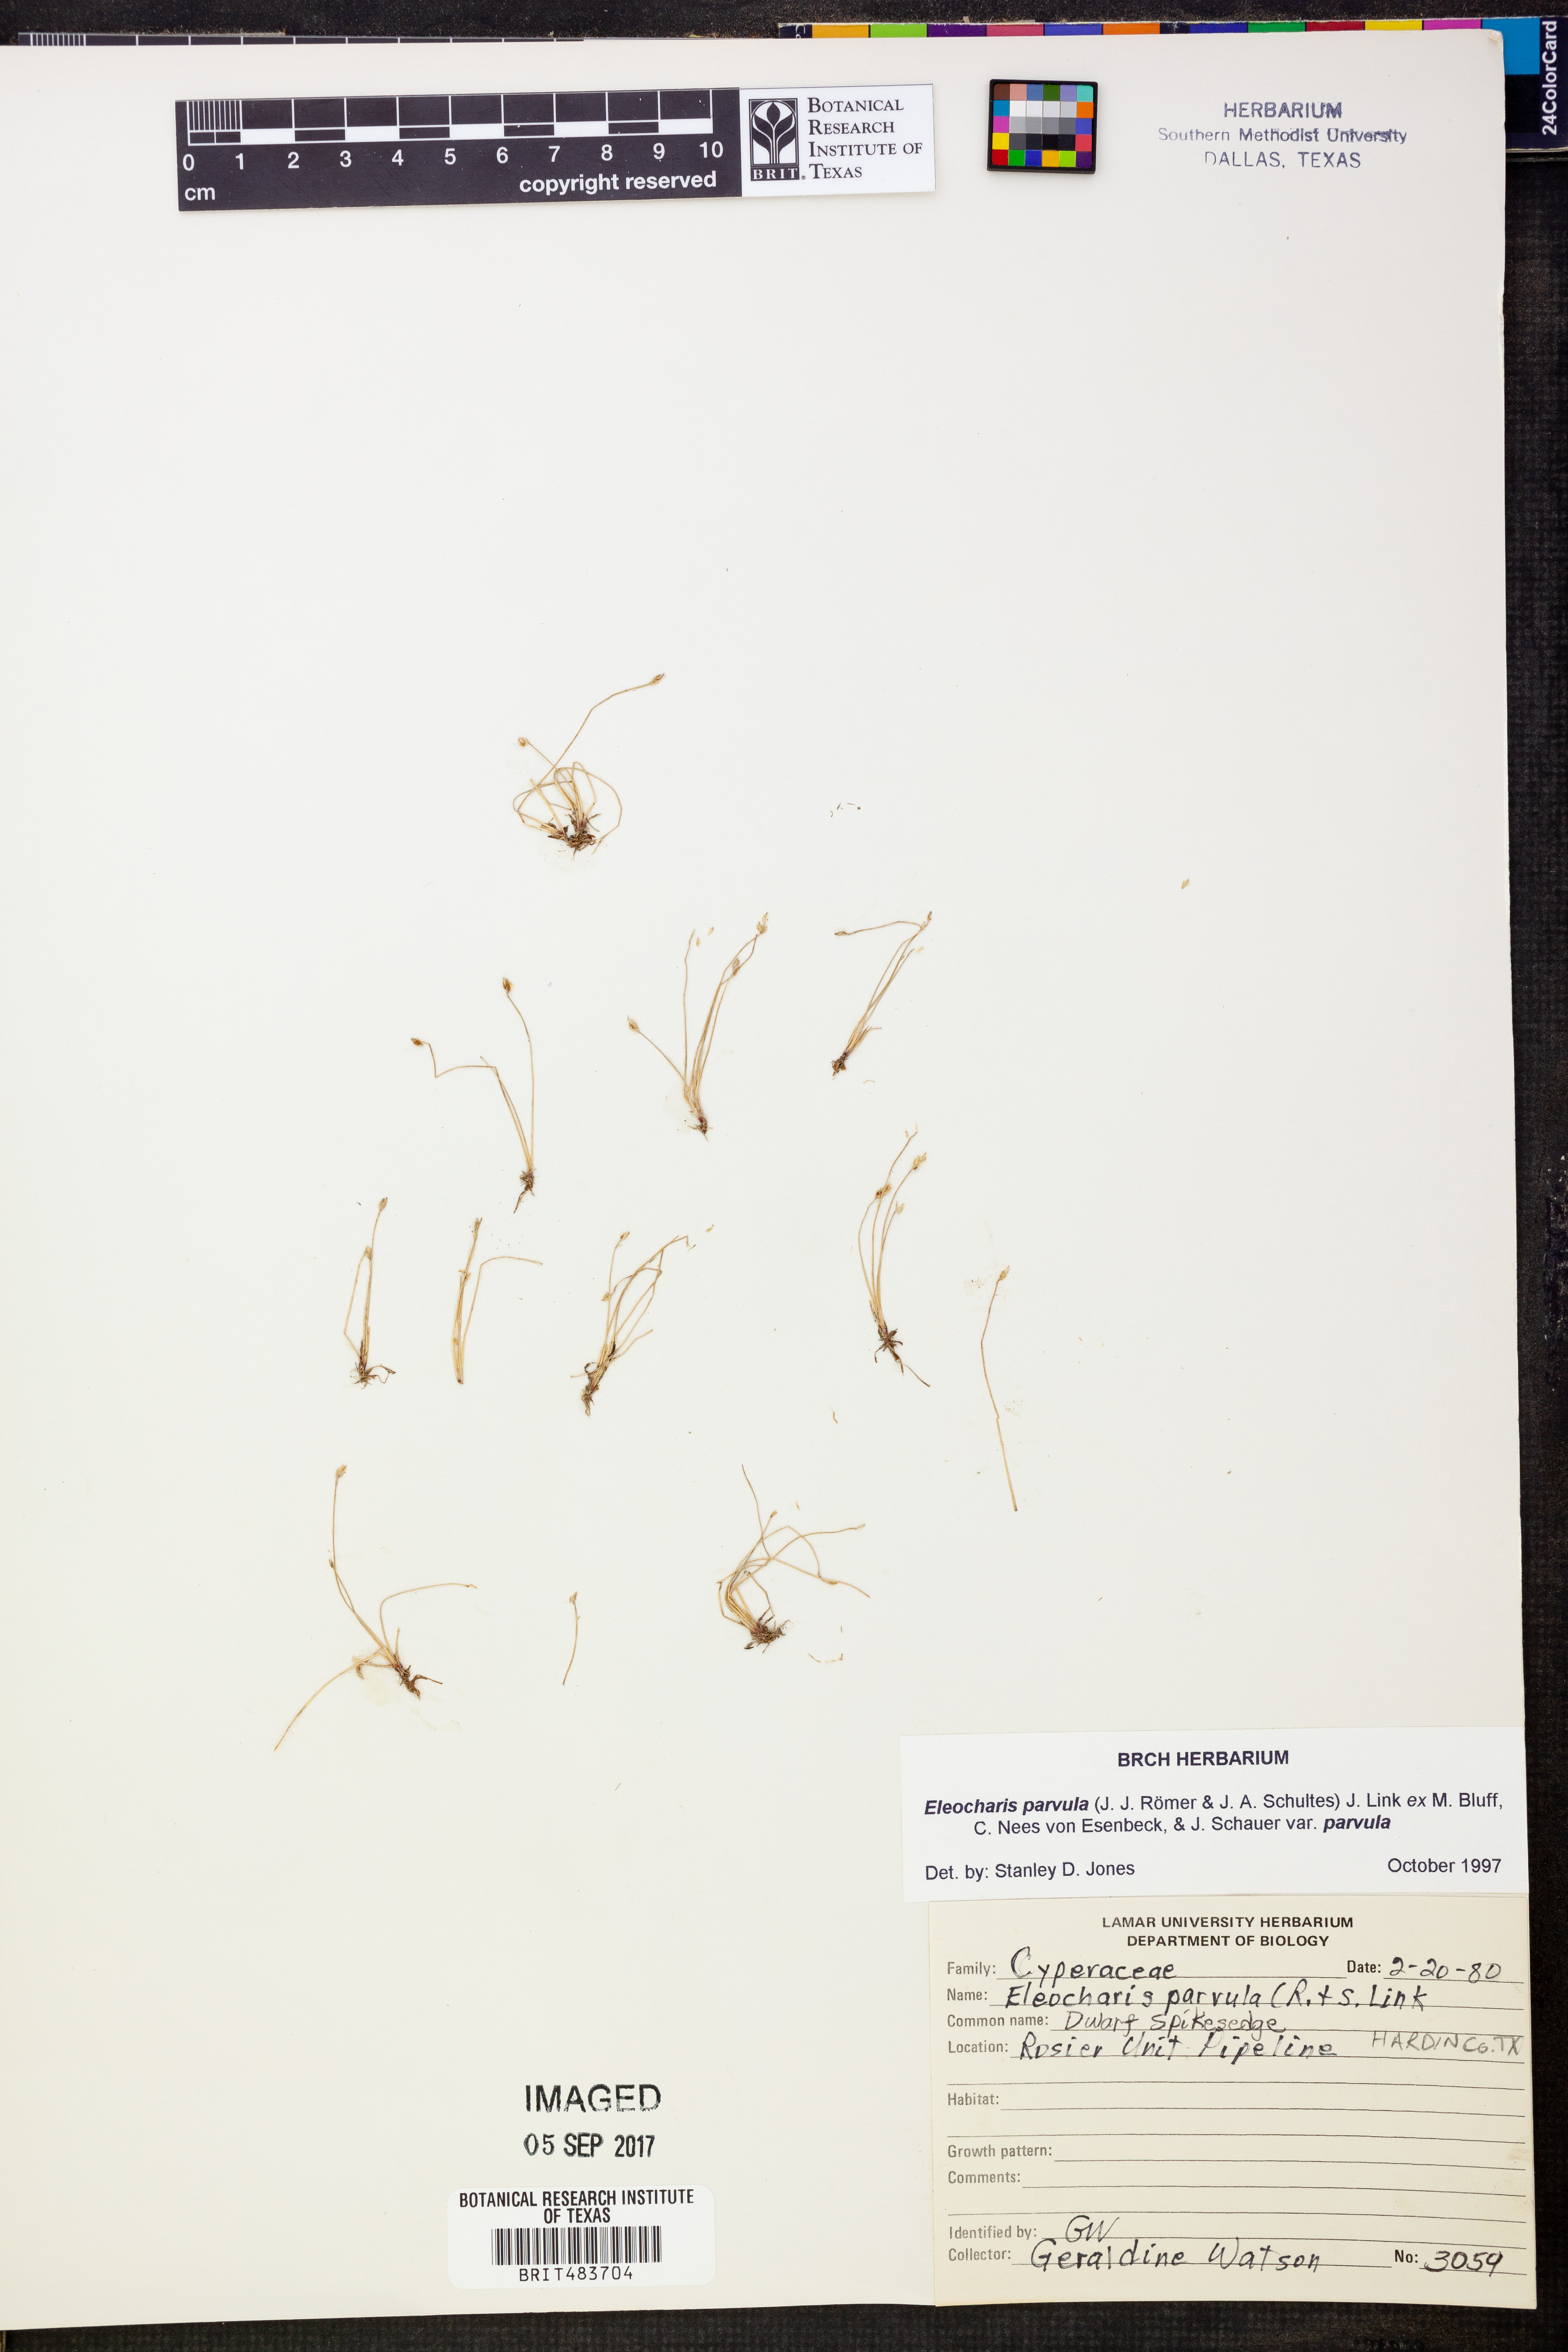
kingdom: Plantae
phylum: Tracheophyta
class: Liliopsida
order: Poales
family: Cyperaceae
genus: Eleocharis
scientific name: Eleocharis parvula
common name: Dwarf spike-rush
